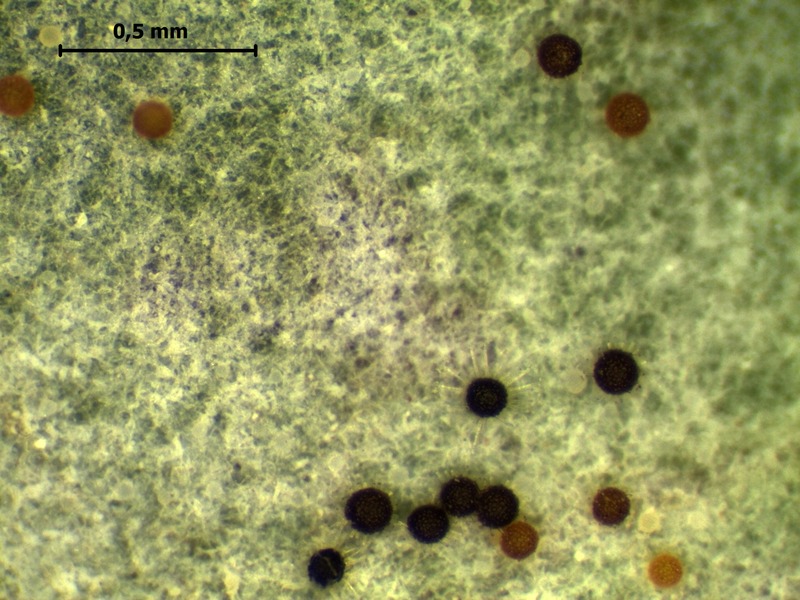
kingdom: Fungi
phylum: Ascomycota
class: Leotiomycetes
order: Helotiales
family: Erysiphaceae
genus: Erysiphe
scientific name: Erysiphe berberidis
